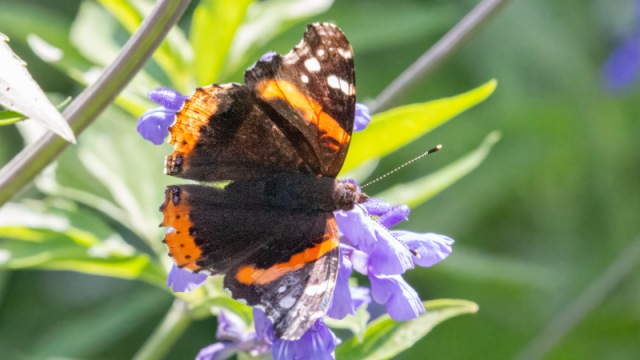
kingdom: Animalia
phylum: Arthropoda
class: Insecta
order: Lepidoptera
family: Nymphalidae
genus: Vanessa
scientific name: Vanessa atalanta
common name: Red Admiral
